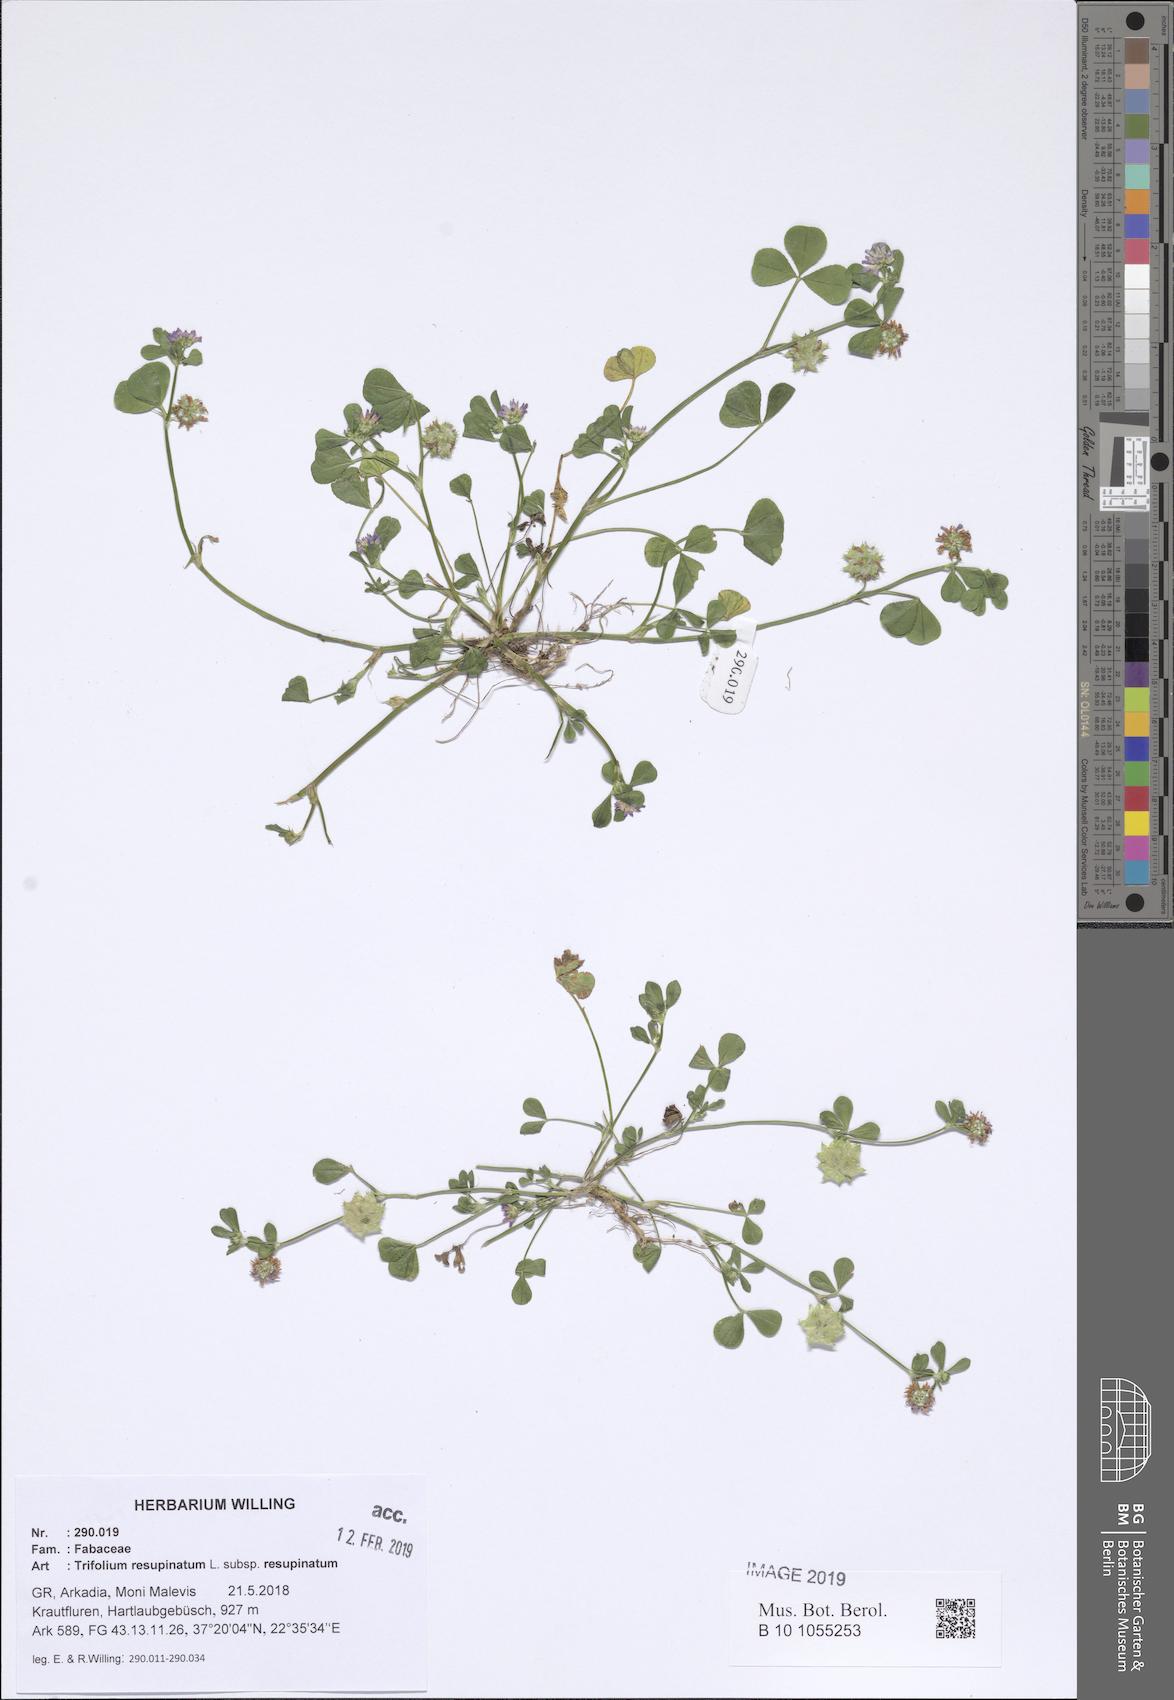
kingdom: Plantae
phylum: Tracheophyta
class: Magnoliopsida
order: Fabales
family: Fabaceae
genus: Trifolium
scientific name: Trifolium resupinatum
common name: Reversed clover
